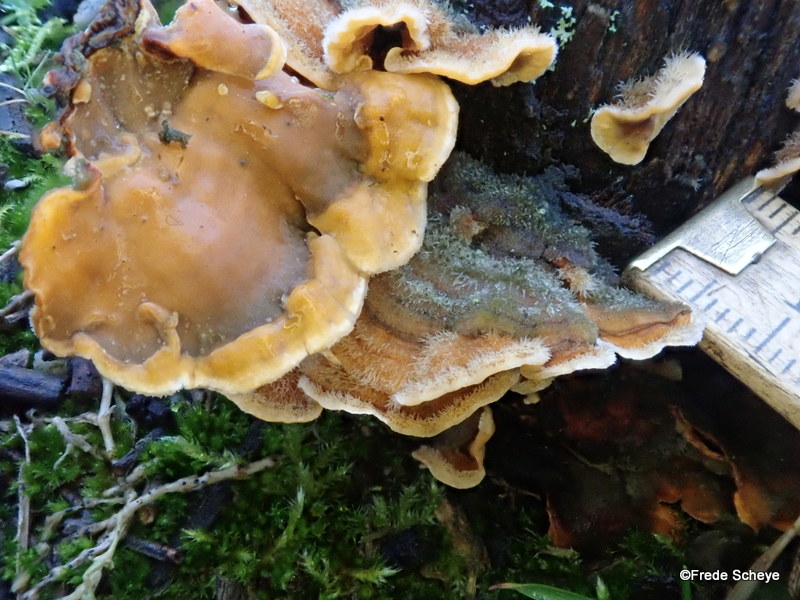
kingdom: Fungi
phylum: Basidiomycota
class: Agaricomycetes
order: Russulales
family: Stereaceae
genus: Stereum
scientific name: Stereum hirsutum
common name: håret lædersvamp
